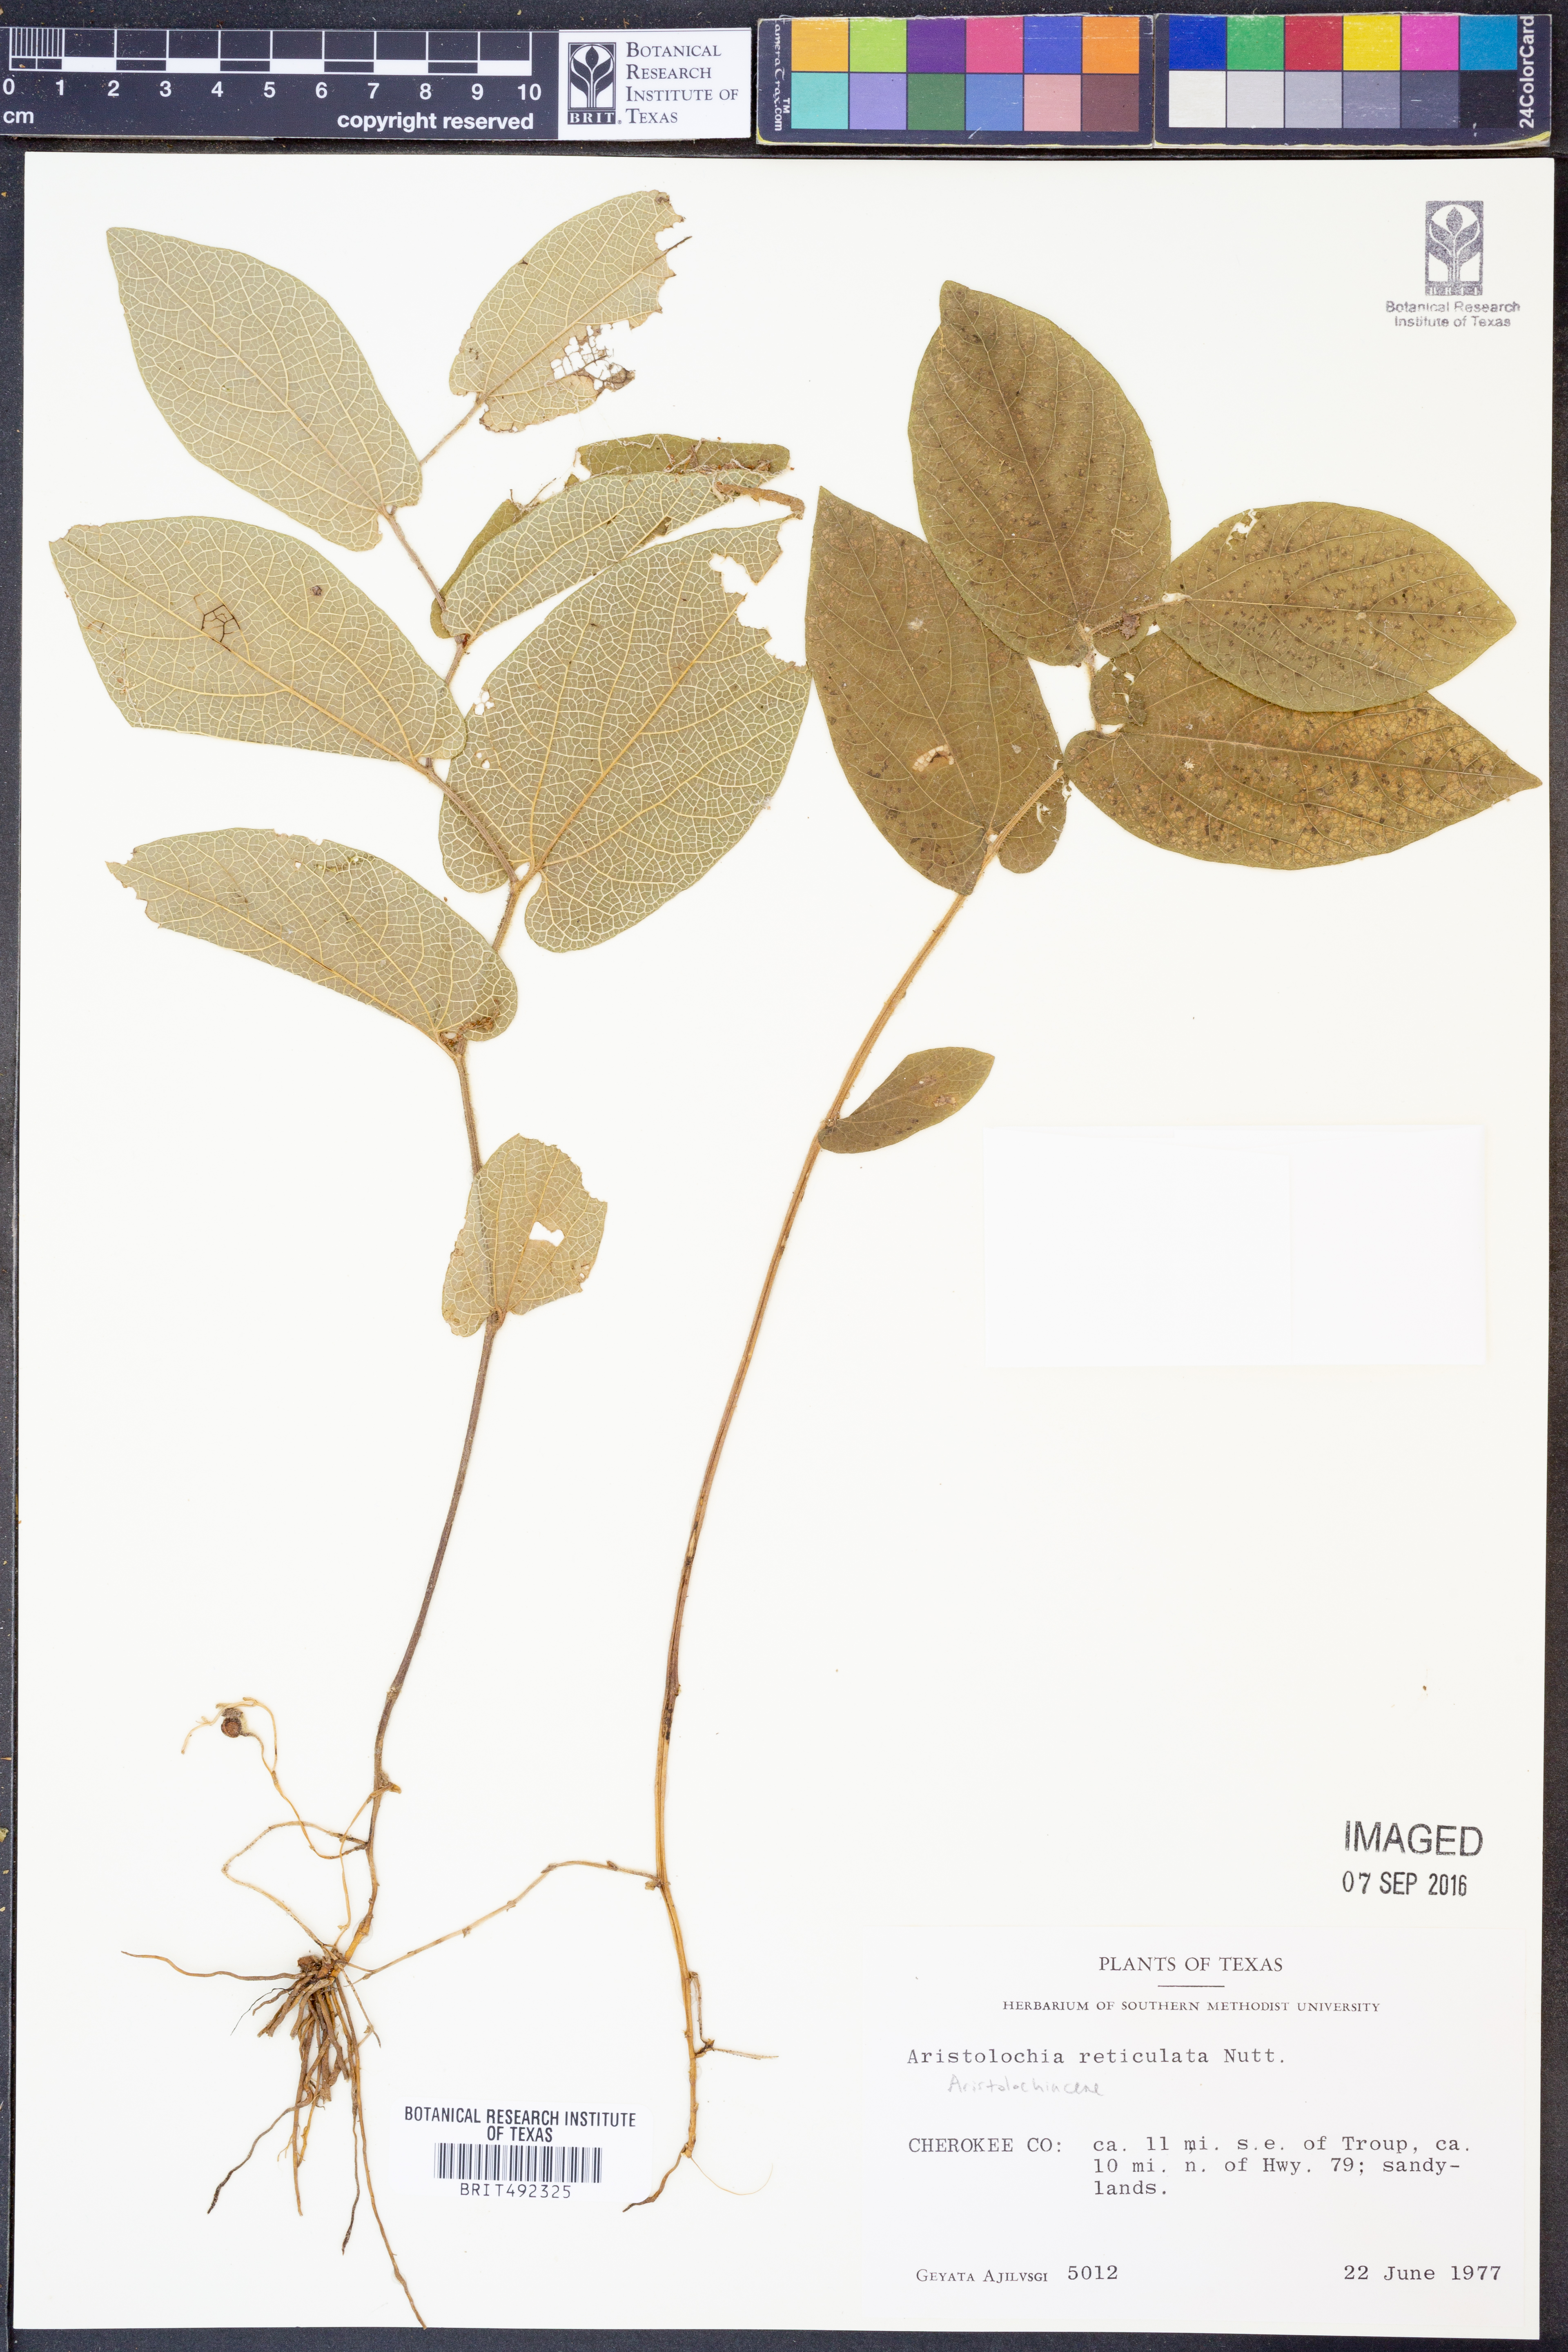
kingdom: Plantae
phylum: Tracheophyta
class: Magnoliopsida
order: Piperales
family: Aristolochiaceae
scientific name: Aristolochiaceae
